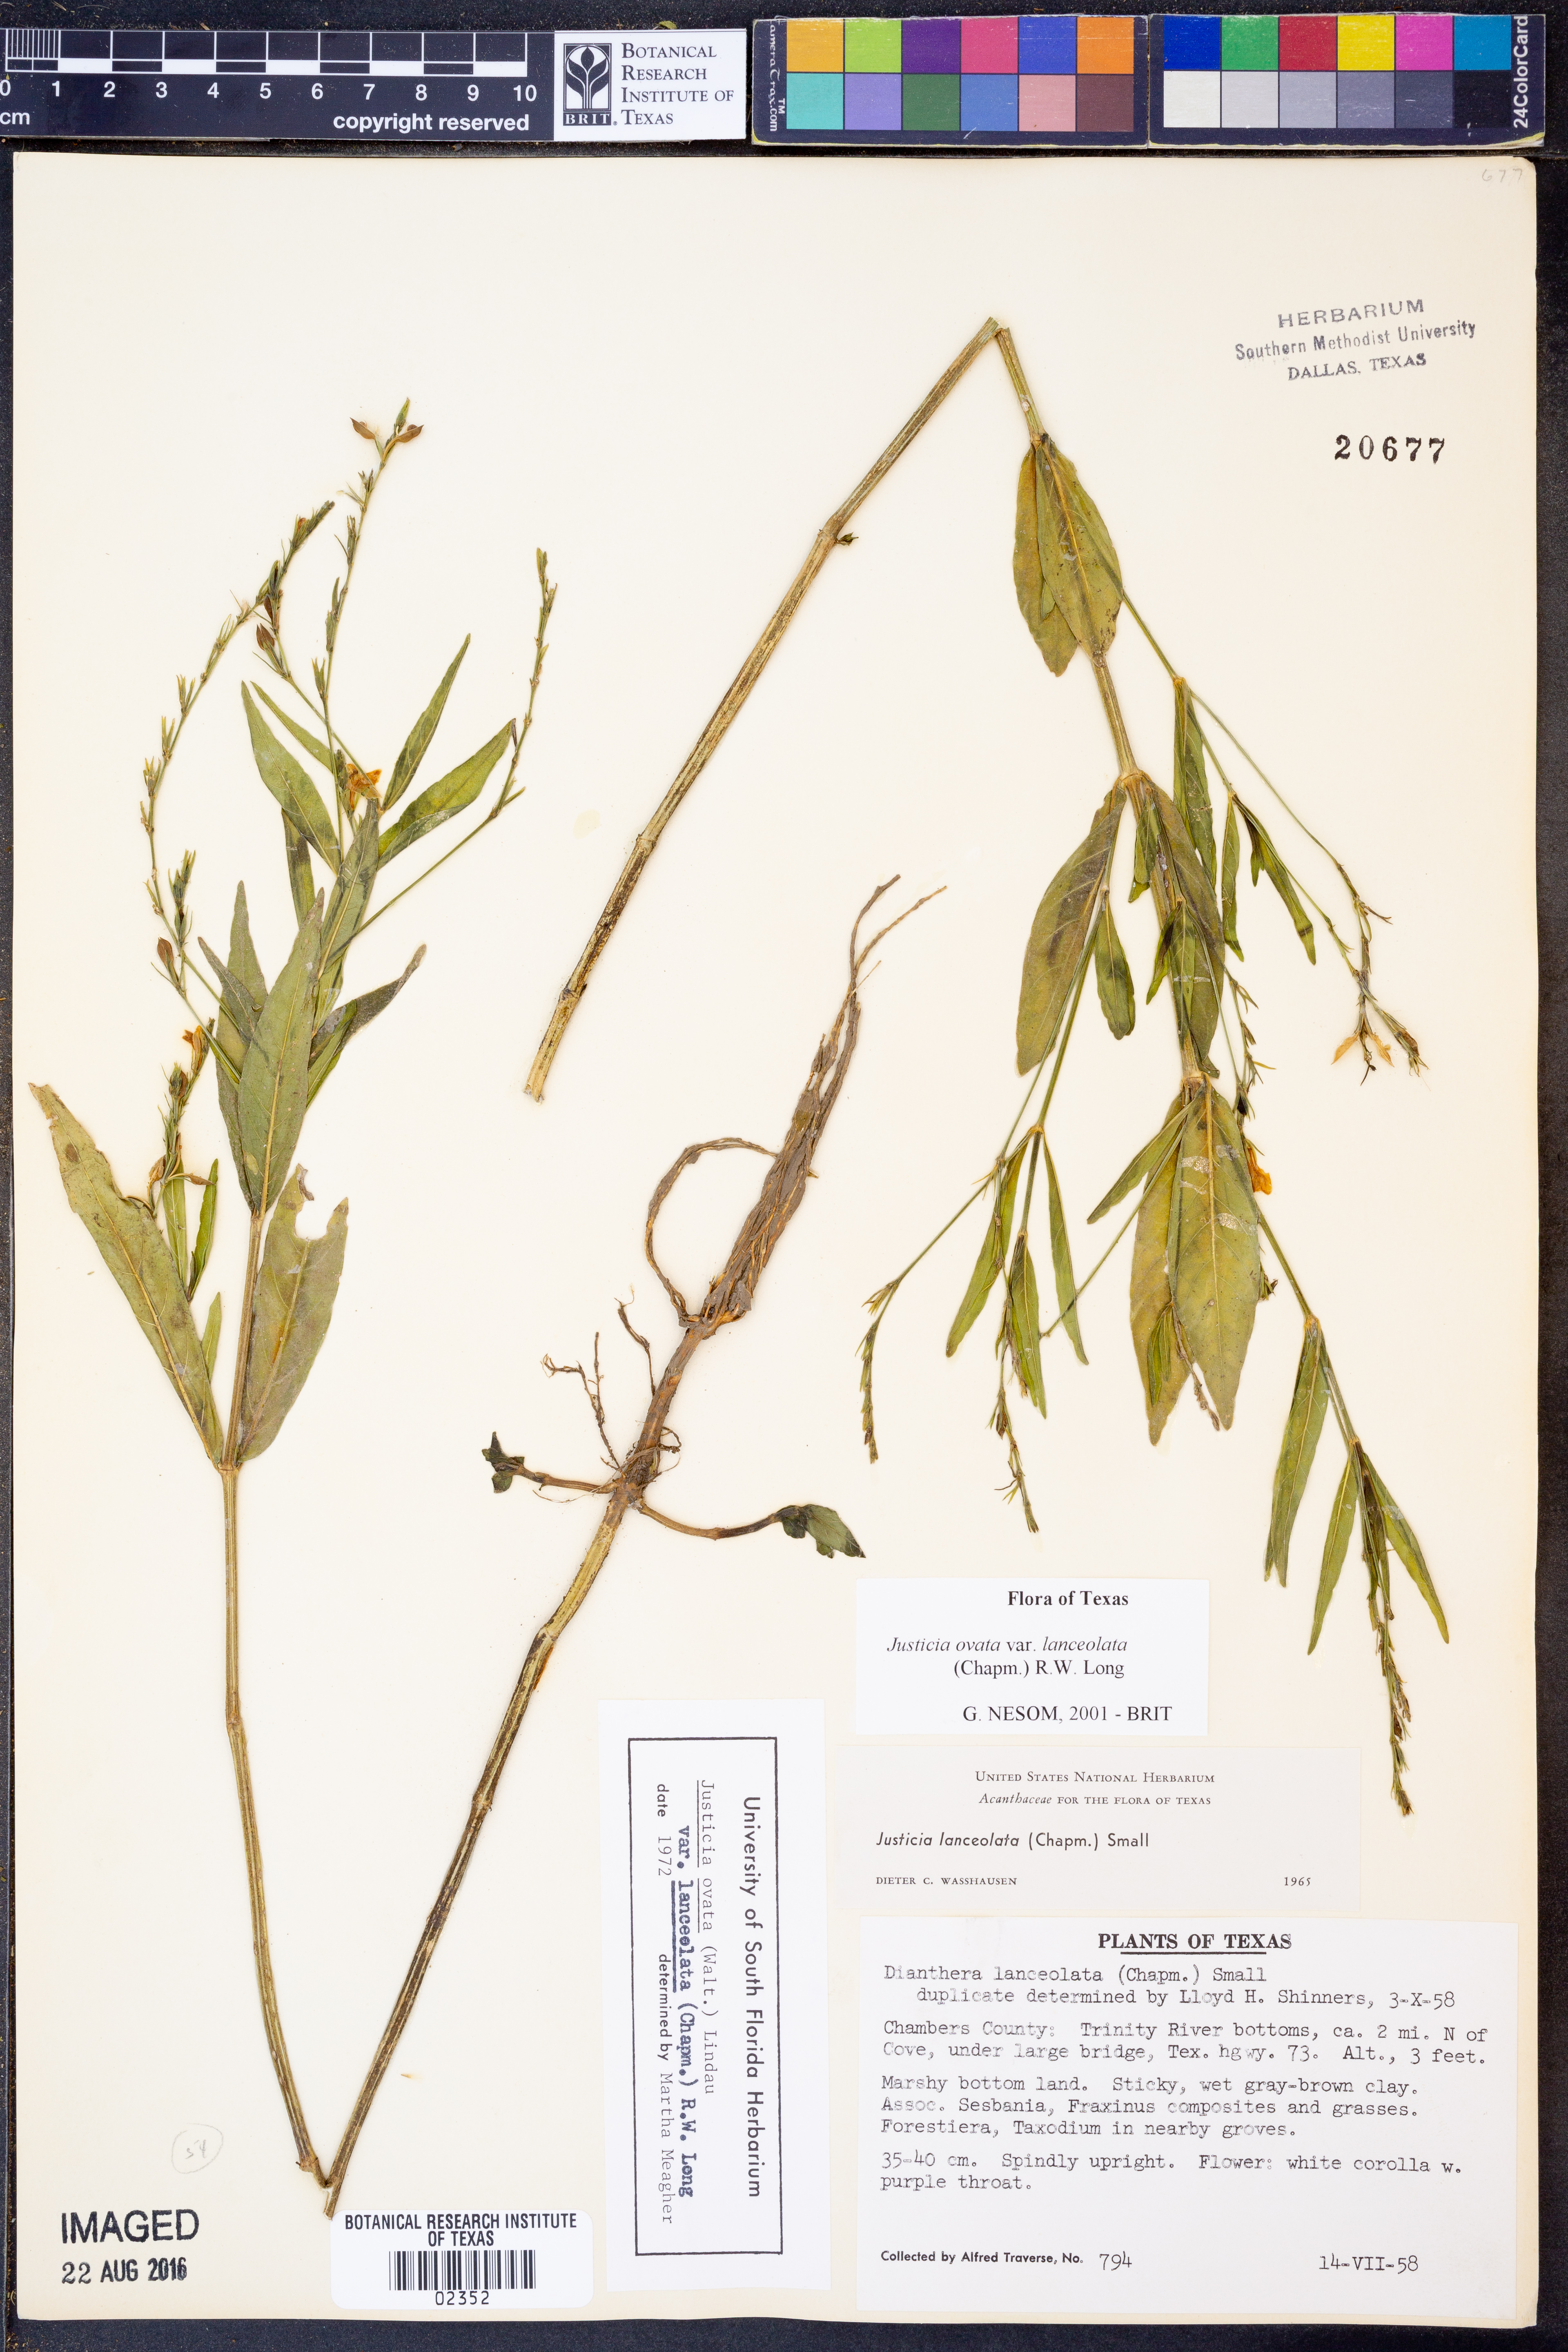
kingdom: Plantae
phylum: Tracheophyta
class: Magnoliopsida
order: Lamiales
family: Acanthaceae
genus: Justicia
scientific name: Justicia lanceolata
